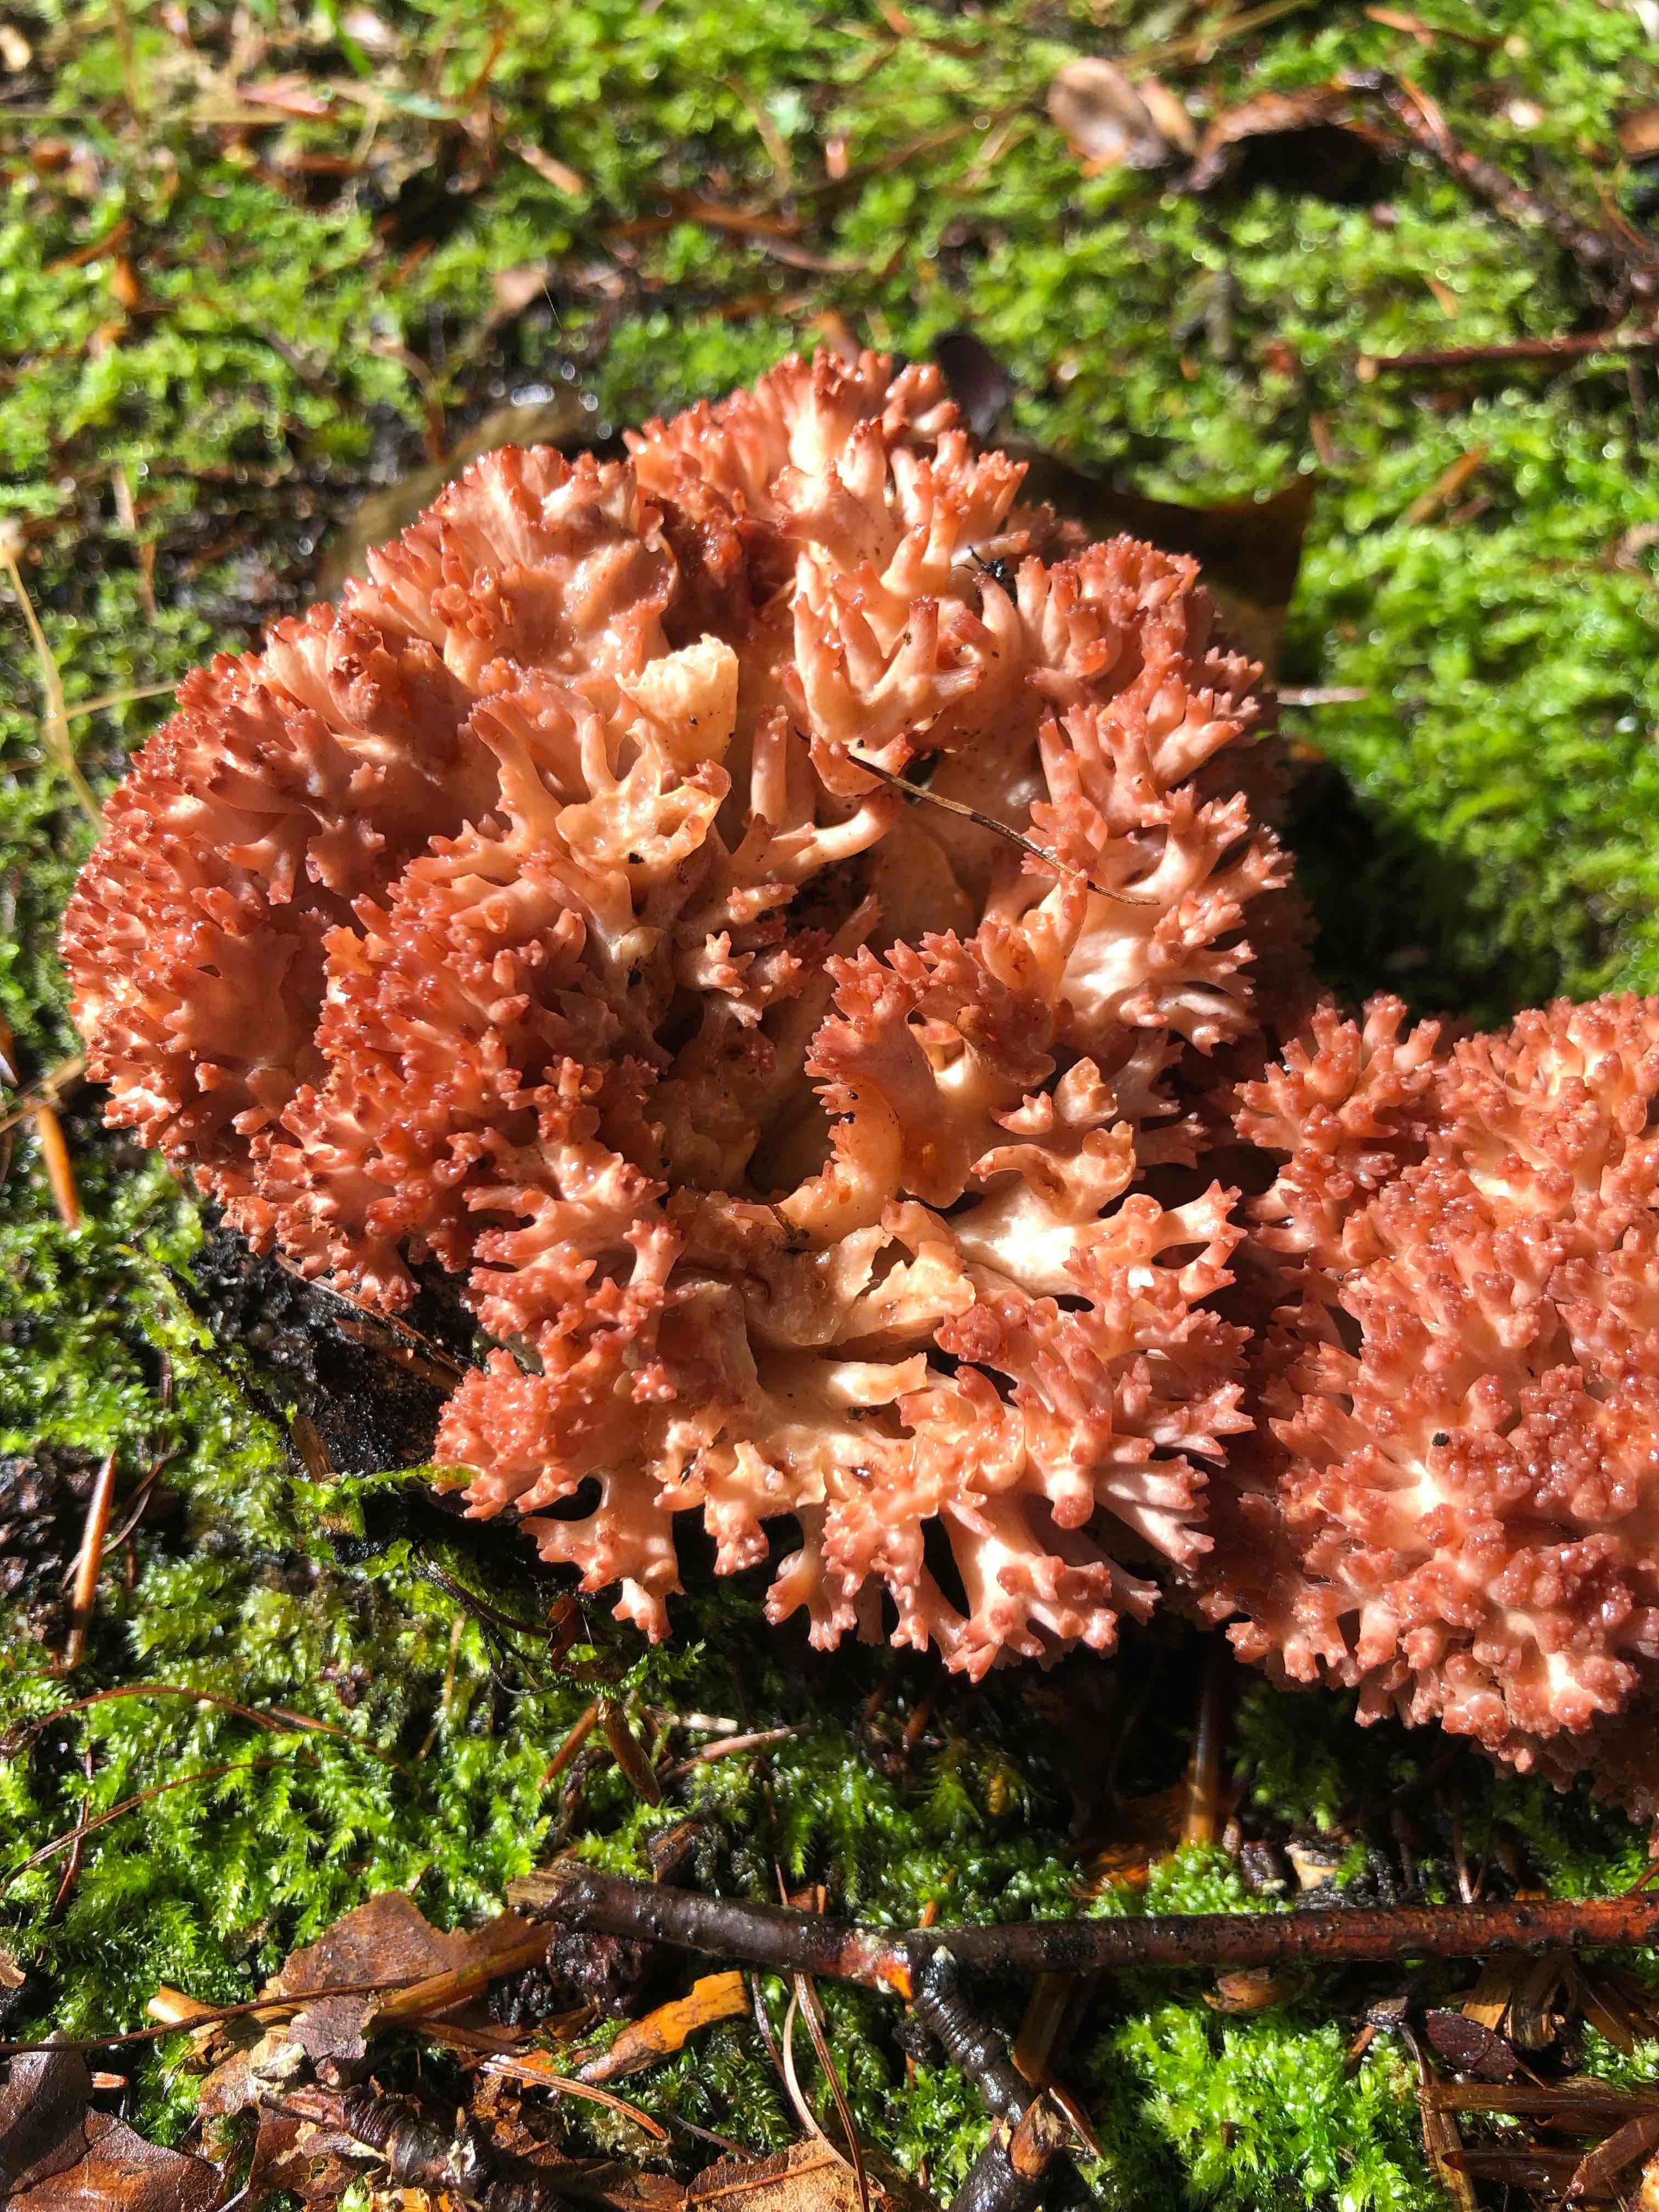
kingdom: Fungi
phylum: Basidiomycota
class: Agaricomycetes
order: Gomphales
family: Gomphaceae
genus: Ramaria
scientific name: Ramaria botrytis
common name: drue-koralsvamp
